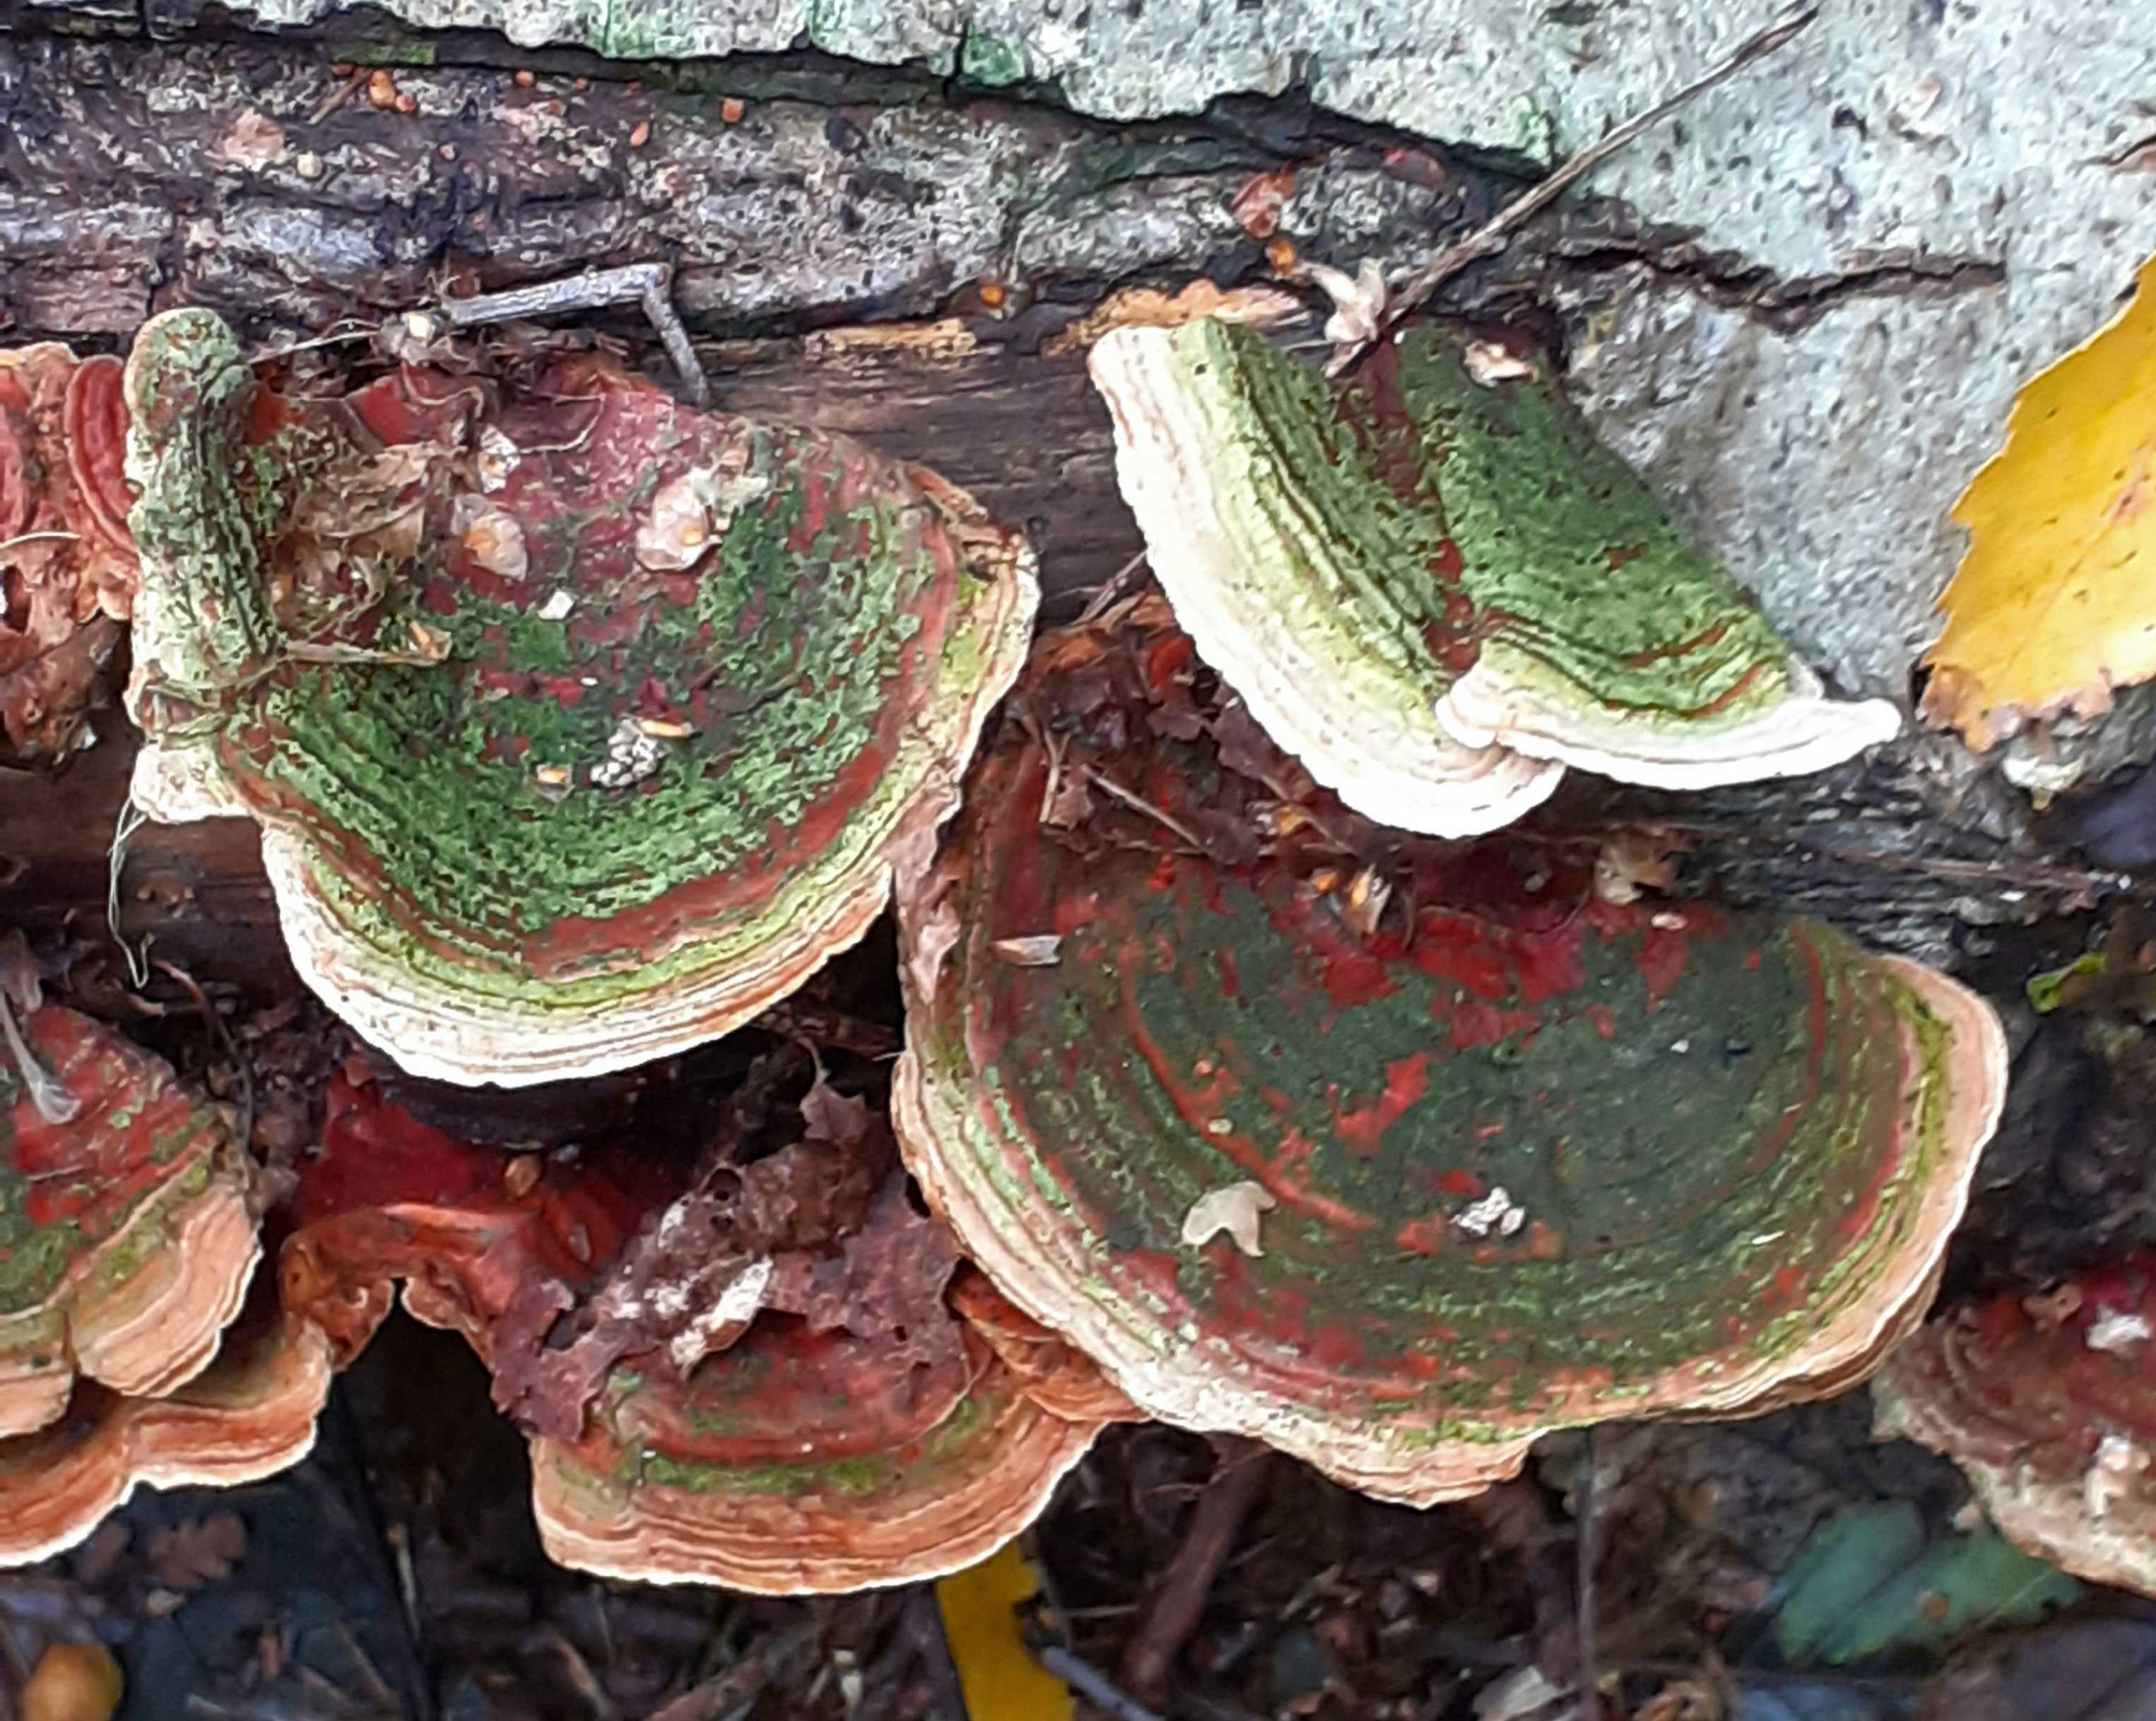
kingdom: Fungi
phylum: Basidiomycota
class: Agaricomycetes
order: Russulales
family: Stereaceae
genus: Stereum
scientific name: Stereum subtomentosum
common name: smuk lædersvamp
